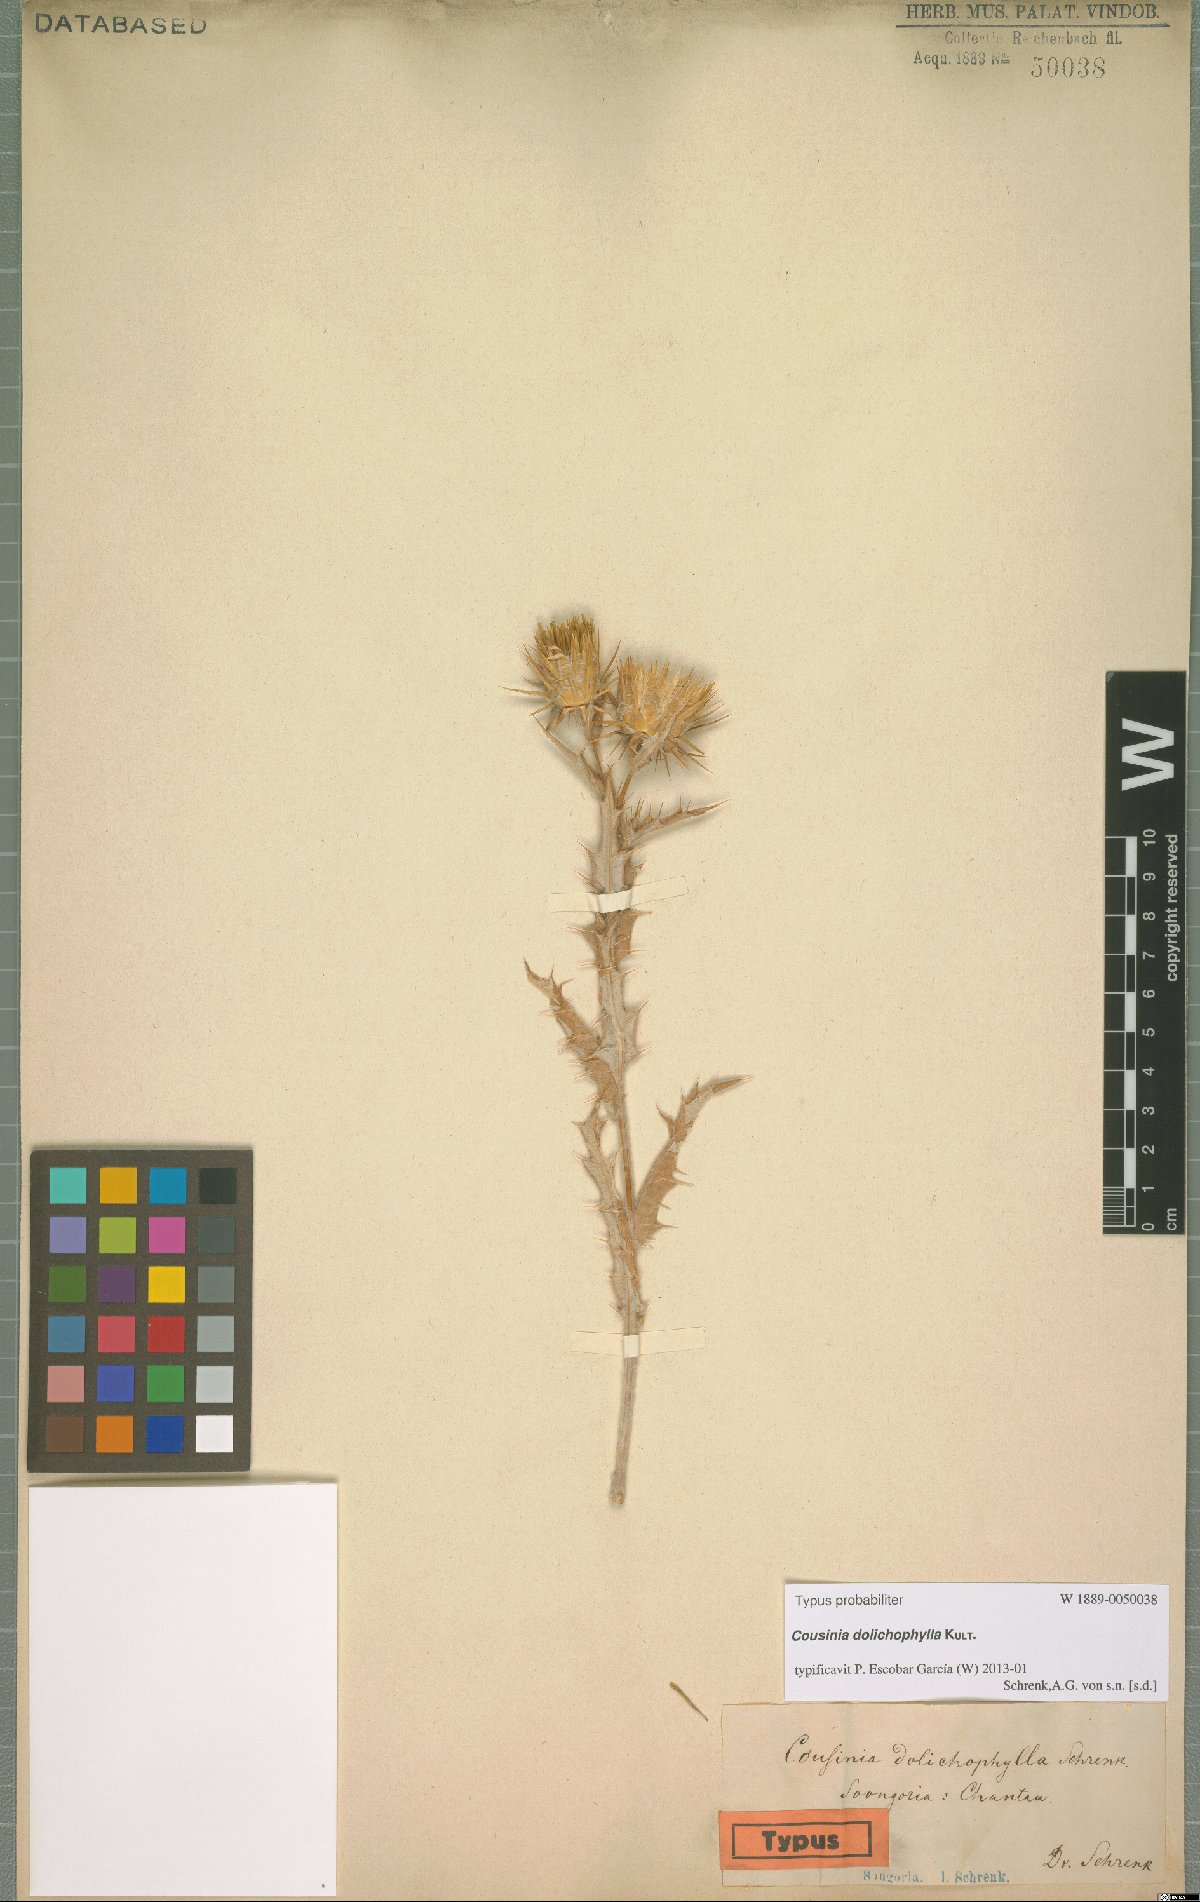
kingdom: Plantae
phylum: Tracheophyta
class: Magnoliopsida
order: Asterales
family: Asteraceae
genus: Arctium
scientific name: Arctium dolichophyllum
